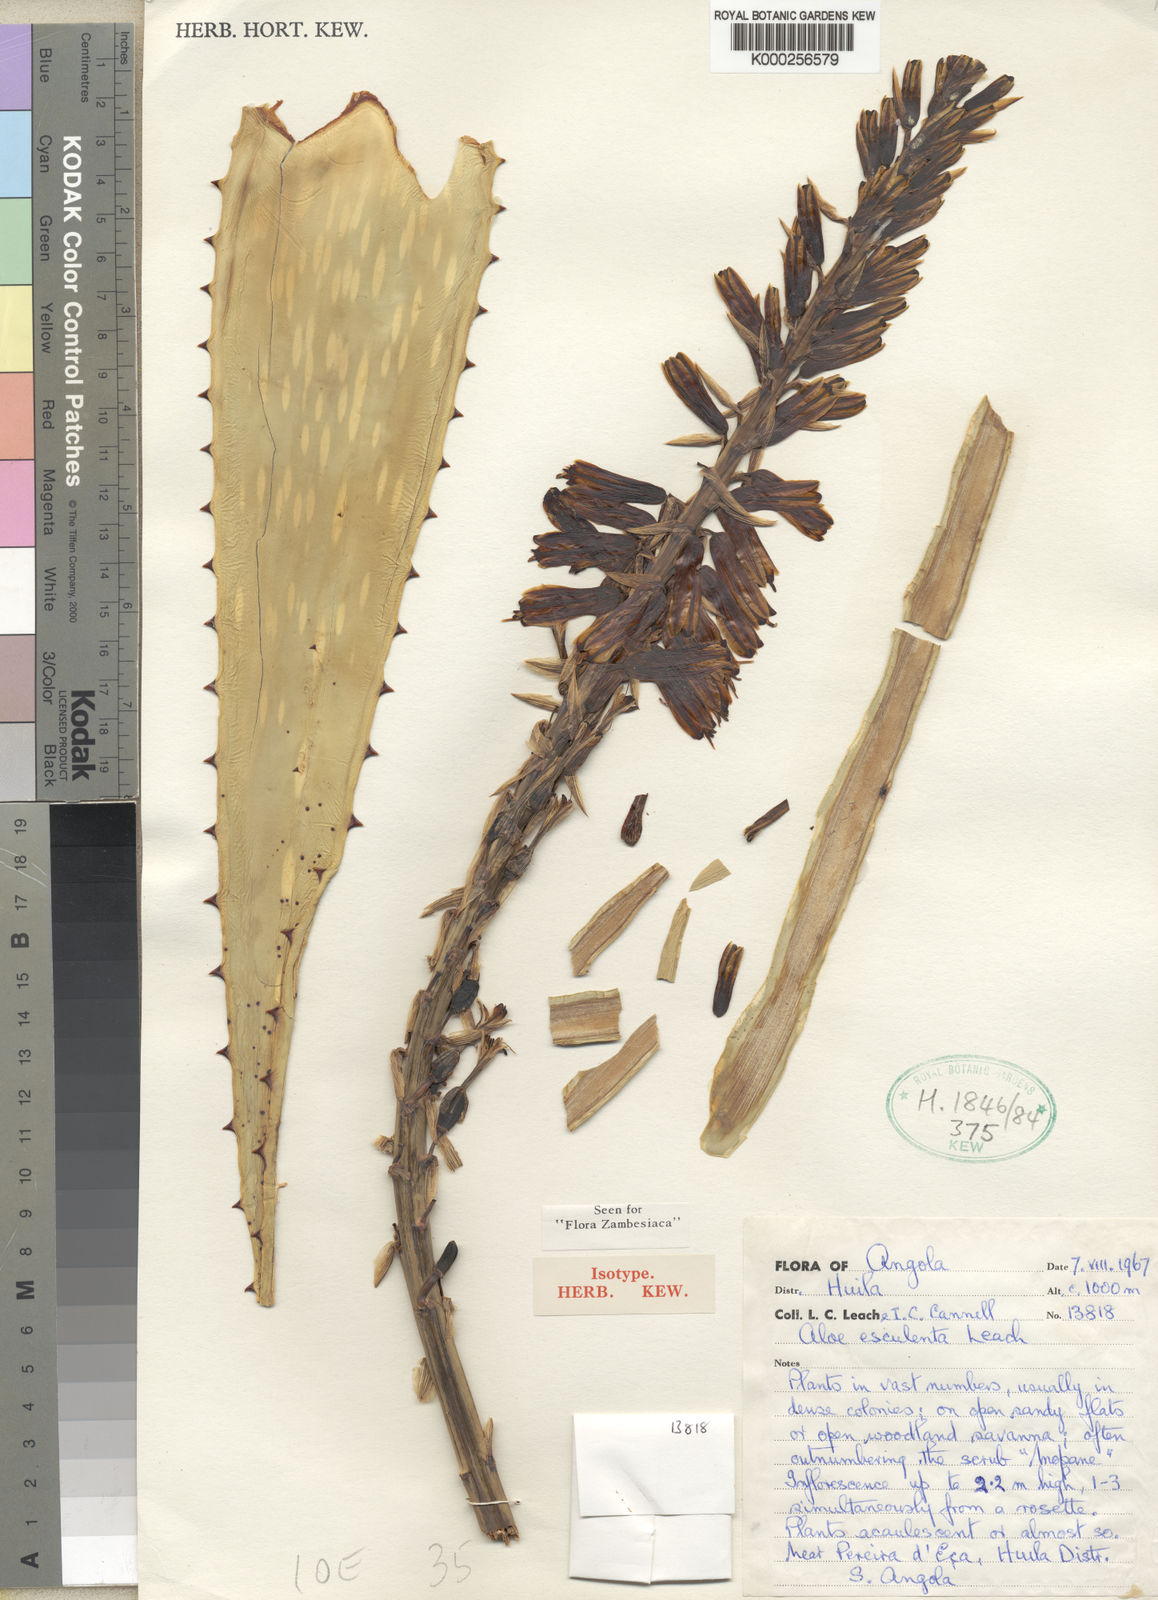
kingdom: Plantae
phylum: Tracheophyta
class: Liliopsida
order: Asparagales
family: Asphodelaceae
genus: Aloe
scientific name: Aloe esculenta
